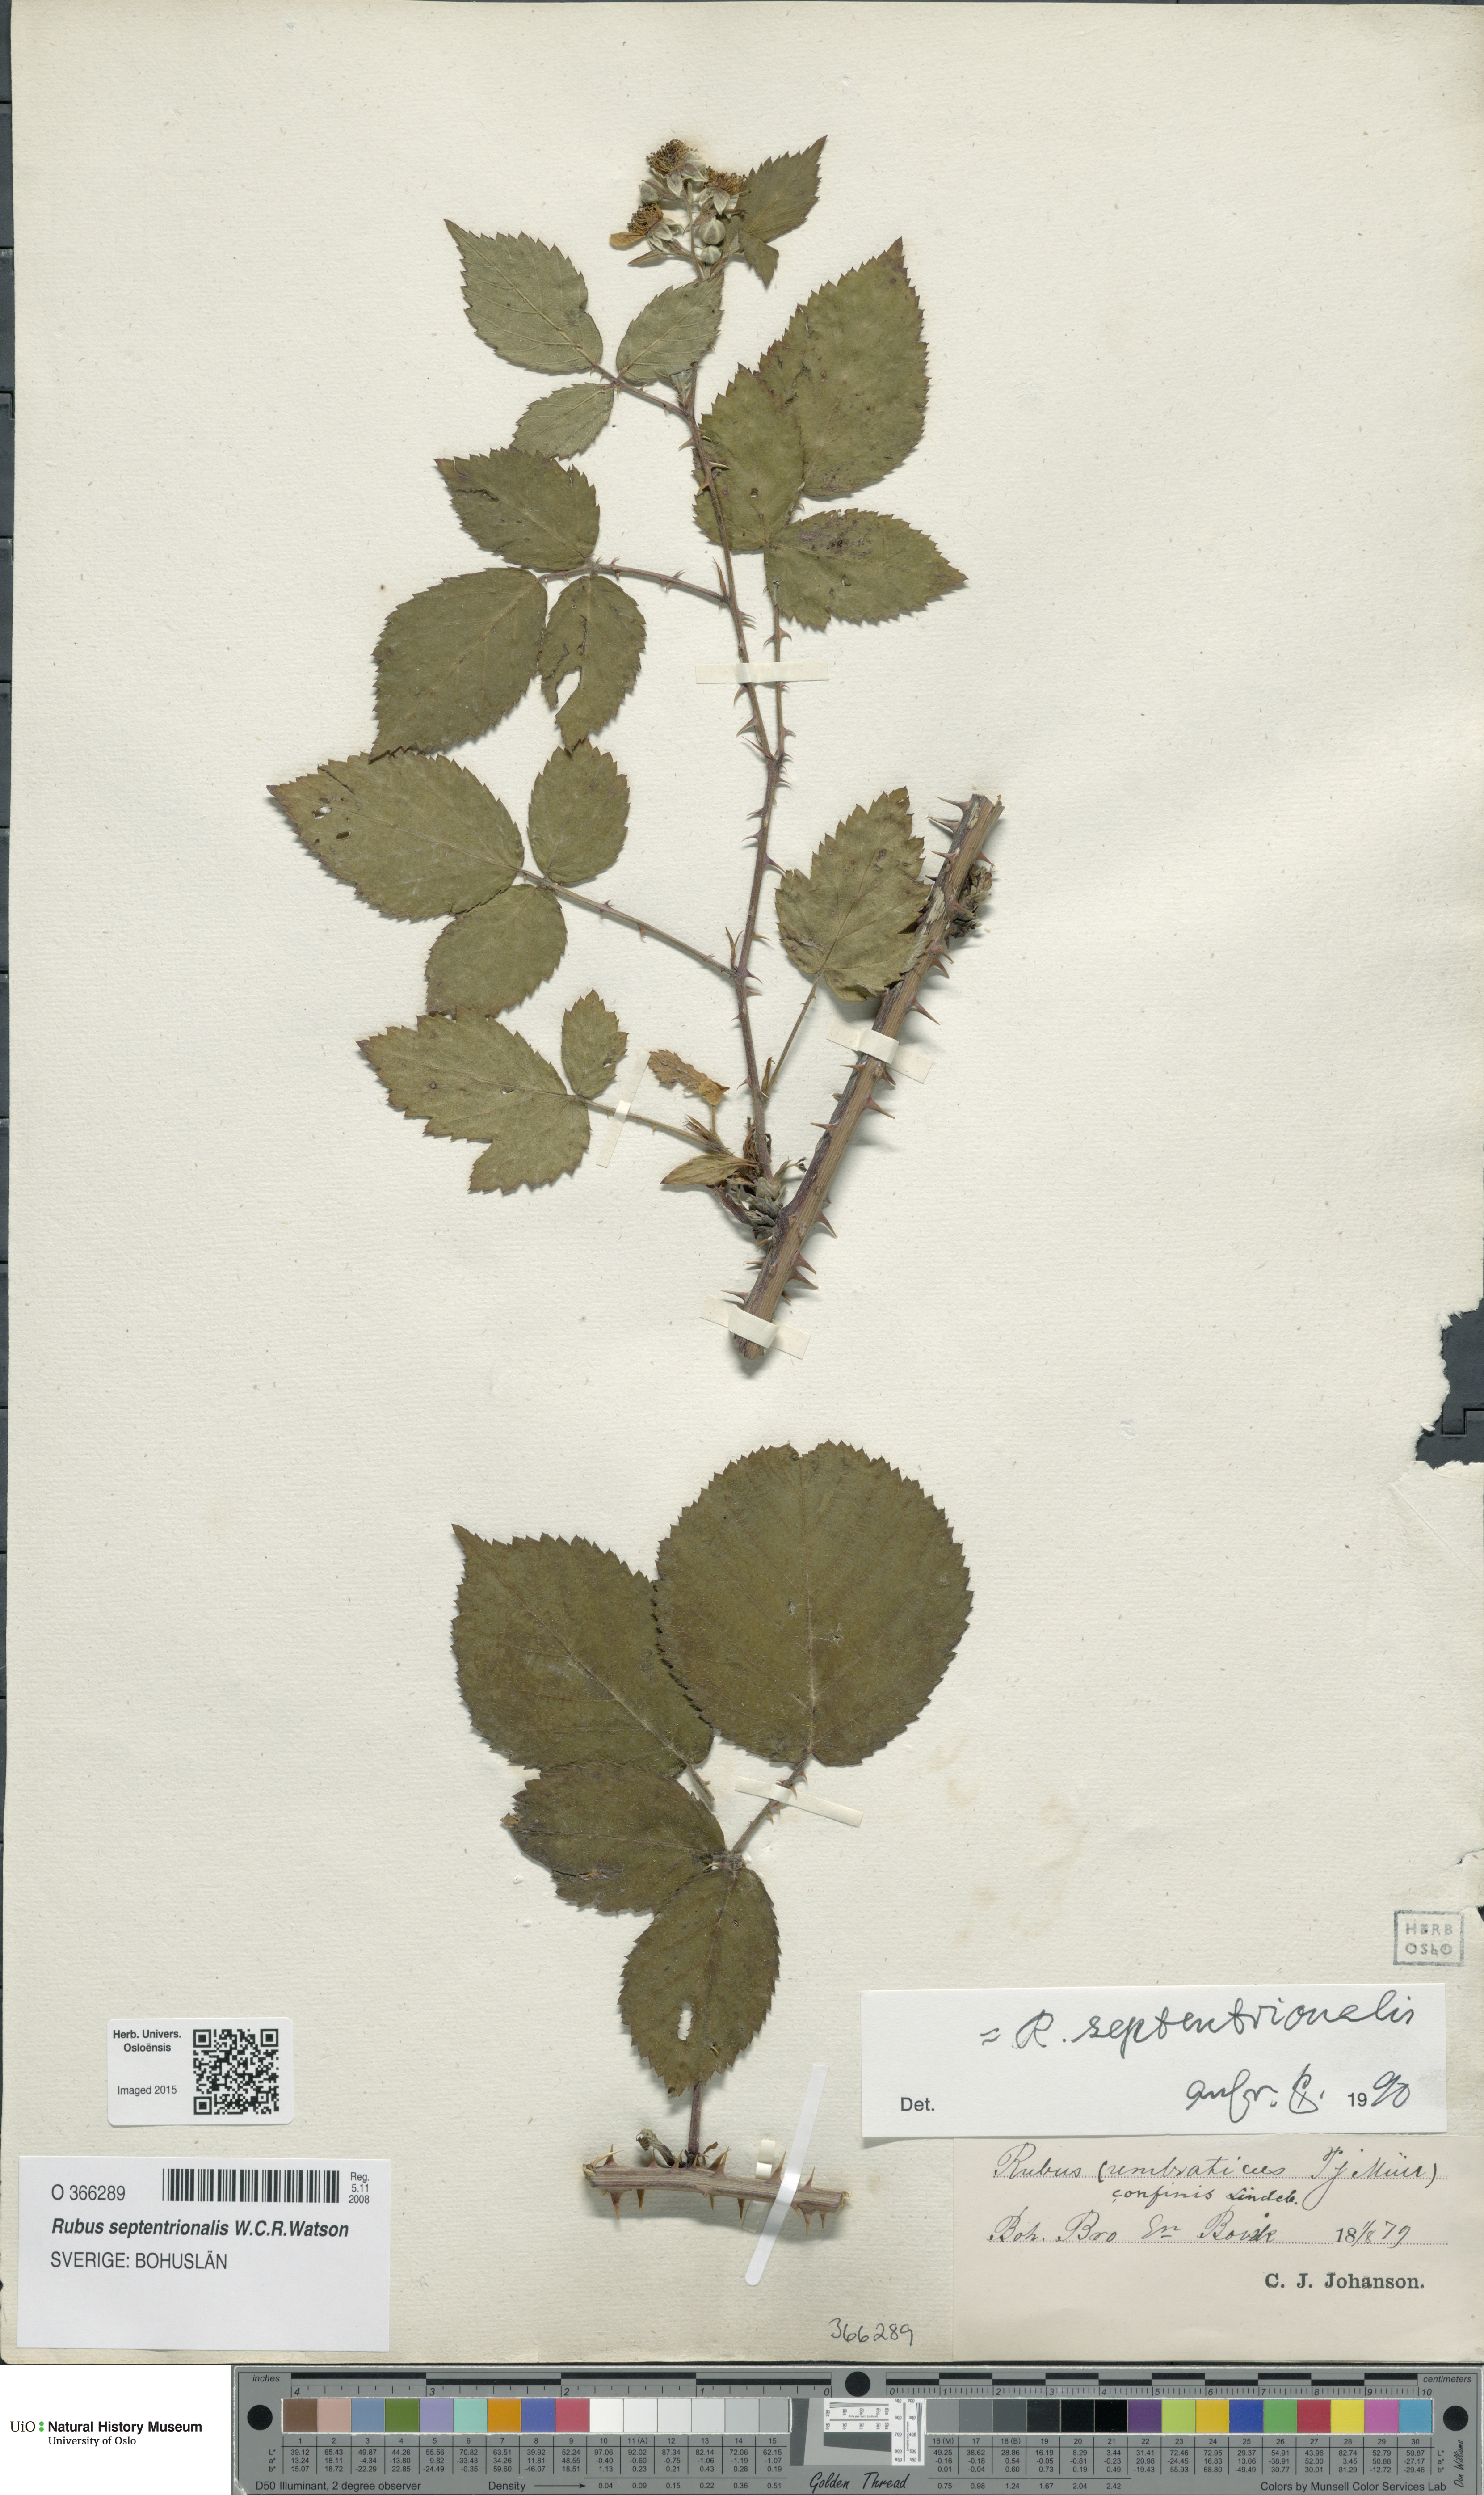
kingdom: Plantae
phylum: Tracheophyta
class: Magnoliopsida
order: Rosales
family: Rosaceae
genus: Rubus
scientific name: Rubus septentrionalis
